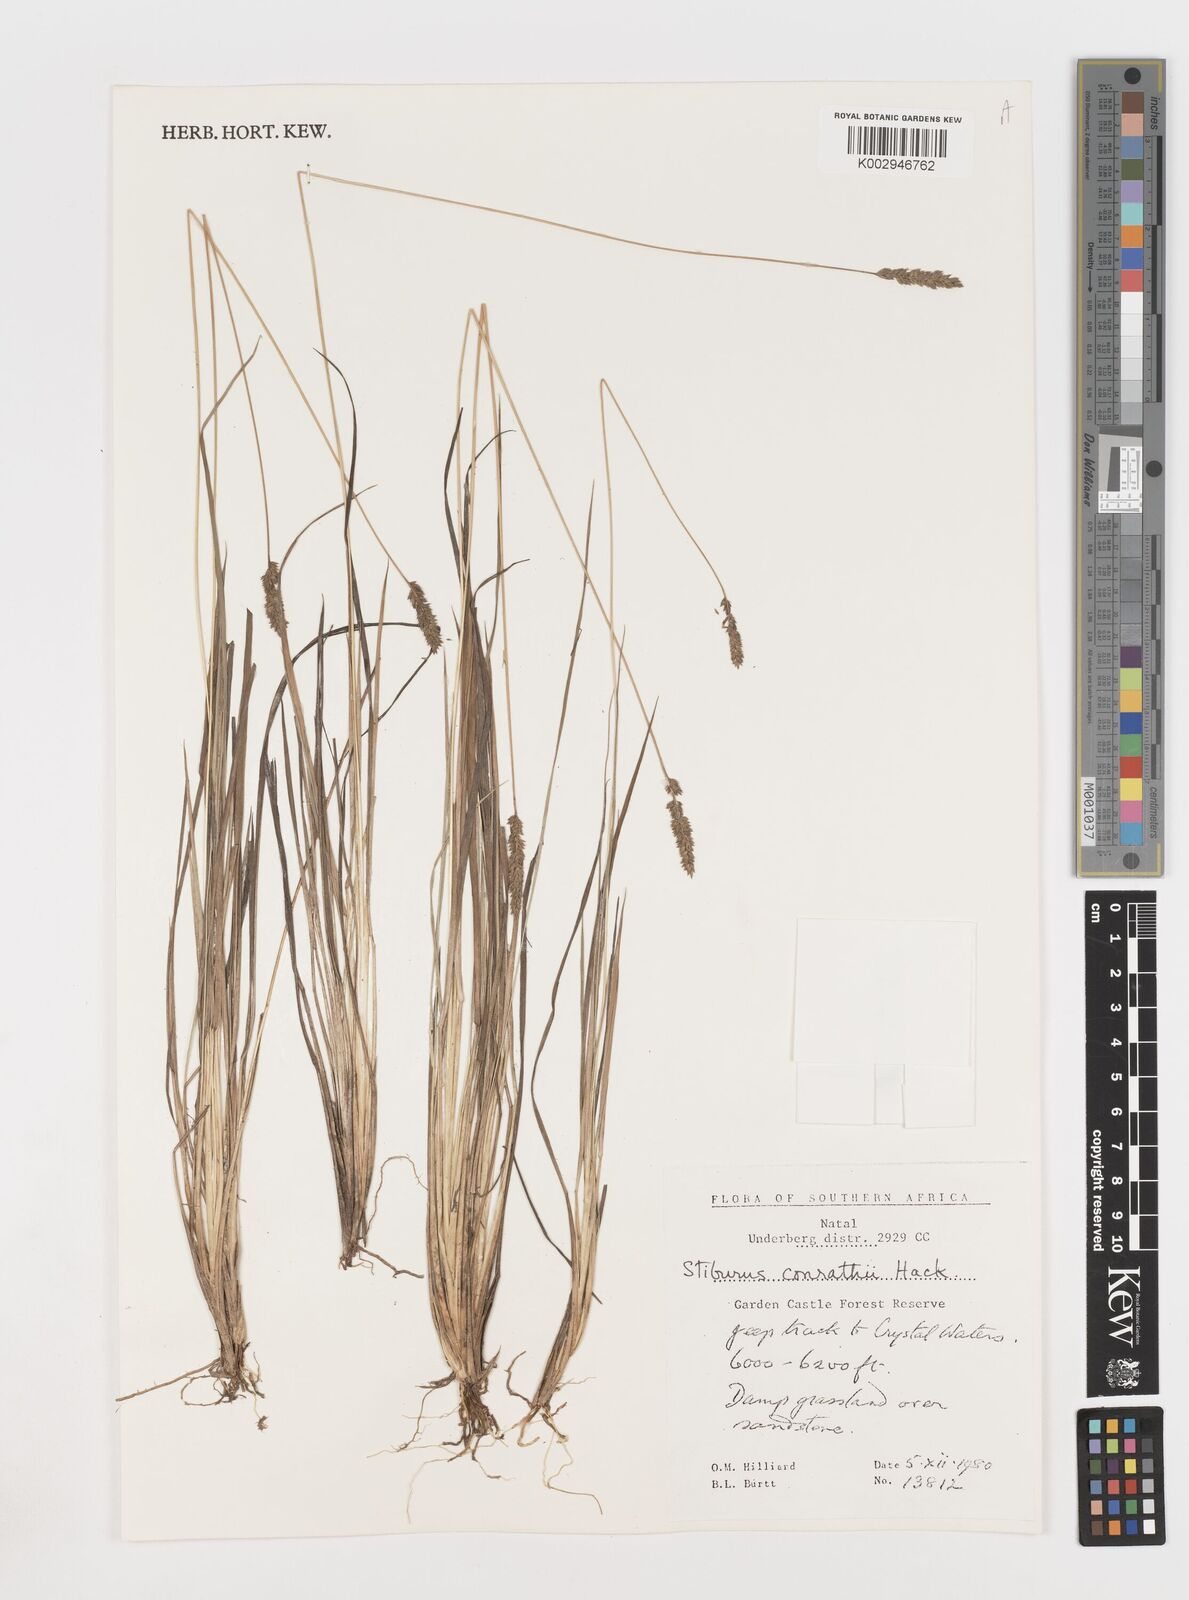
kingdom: Plantae
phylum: Tracheophyta
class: Liliopsida
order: Poales
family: Poaceae
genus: Stiburus
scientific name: Stiburus conrathii
